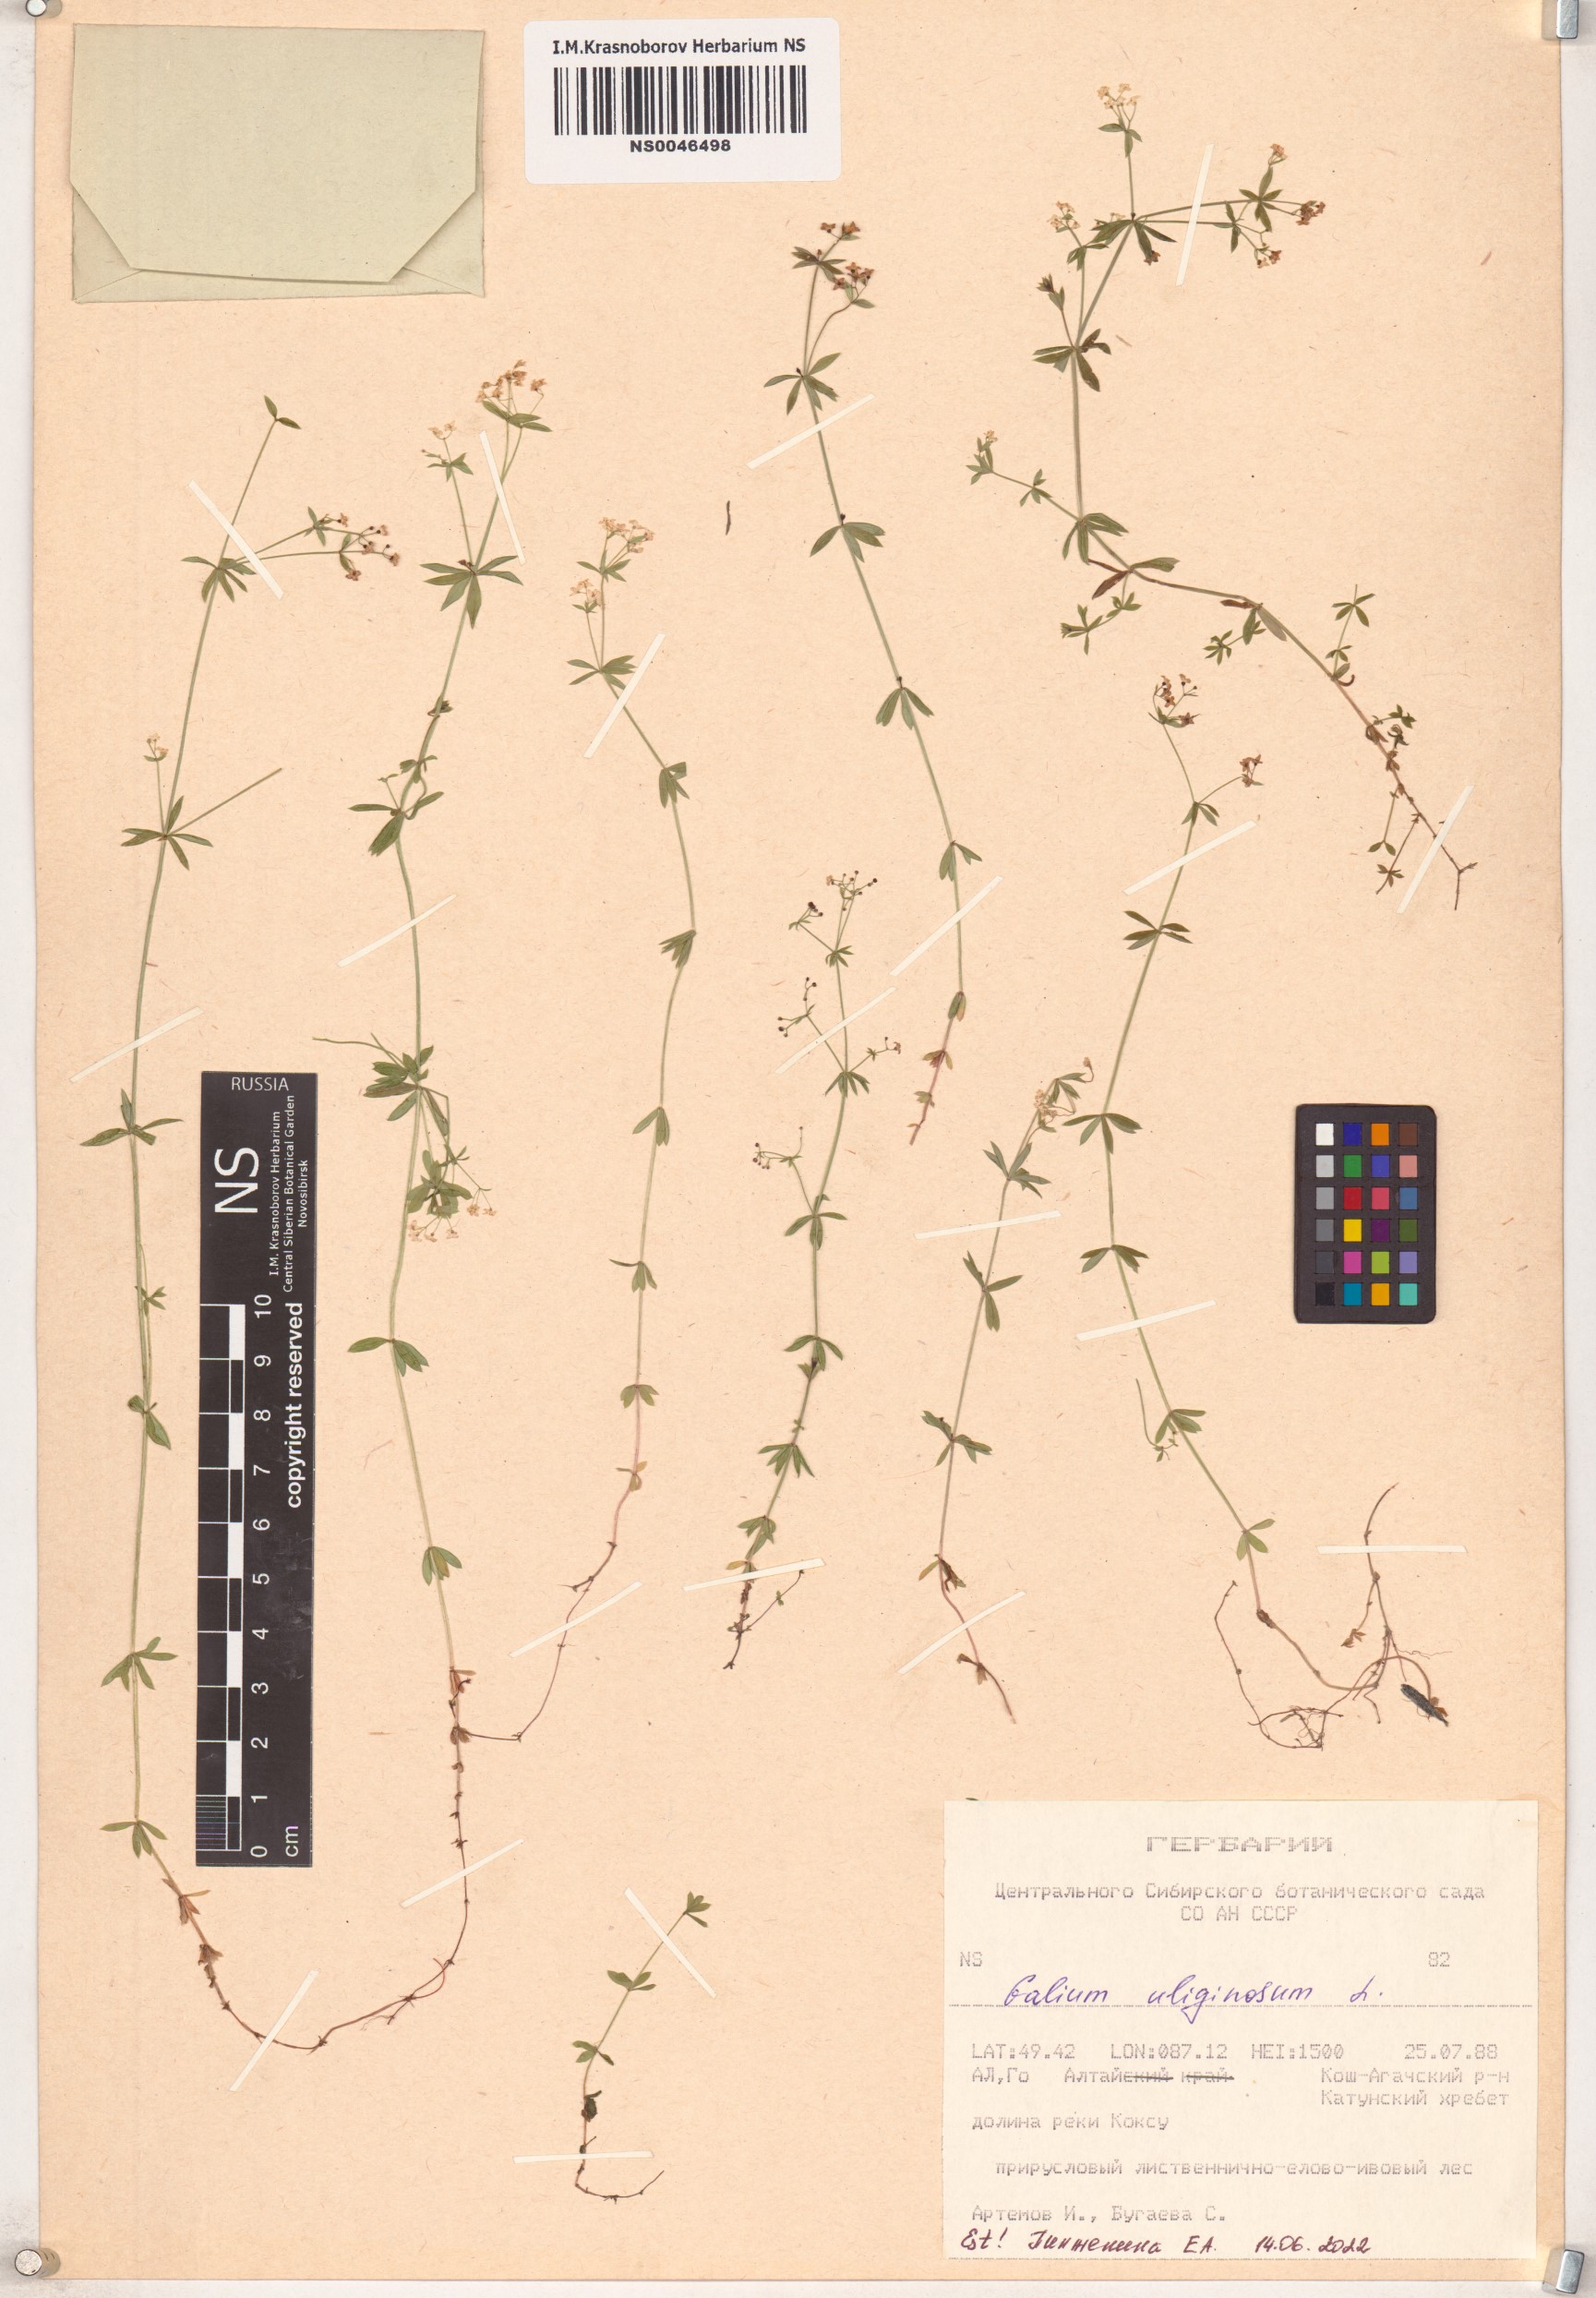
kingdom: Plantae
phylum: Tracheophyta
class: Magnoliopsida
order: Gentianales
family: Rubiaceae
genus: Galium
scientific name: Galium uliginosum
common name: Fen bedstraw
